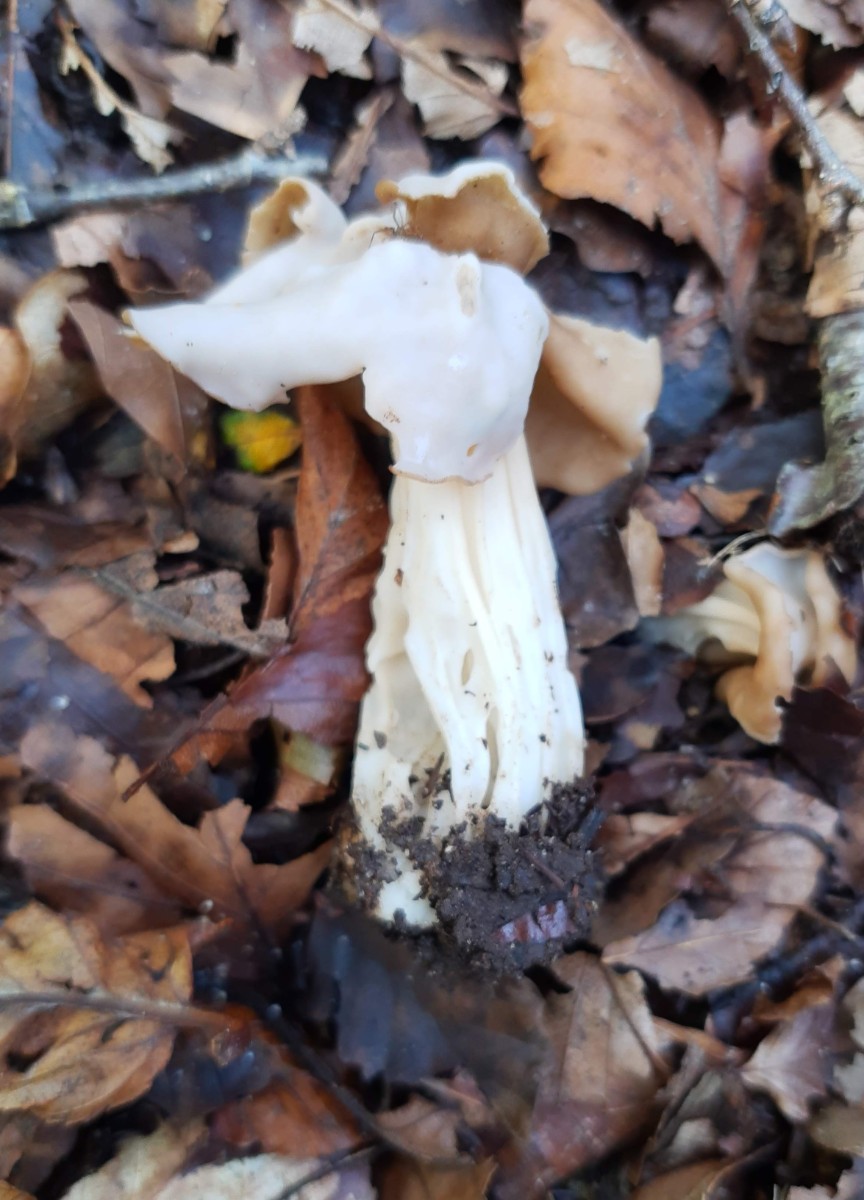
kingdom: Fungi
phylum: Ascomycota
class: Pezizomycetes
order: Pezizales
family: Helvellaceae
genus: Helvella
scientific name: Helvella crispa
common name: kruset foldhat
